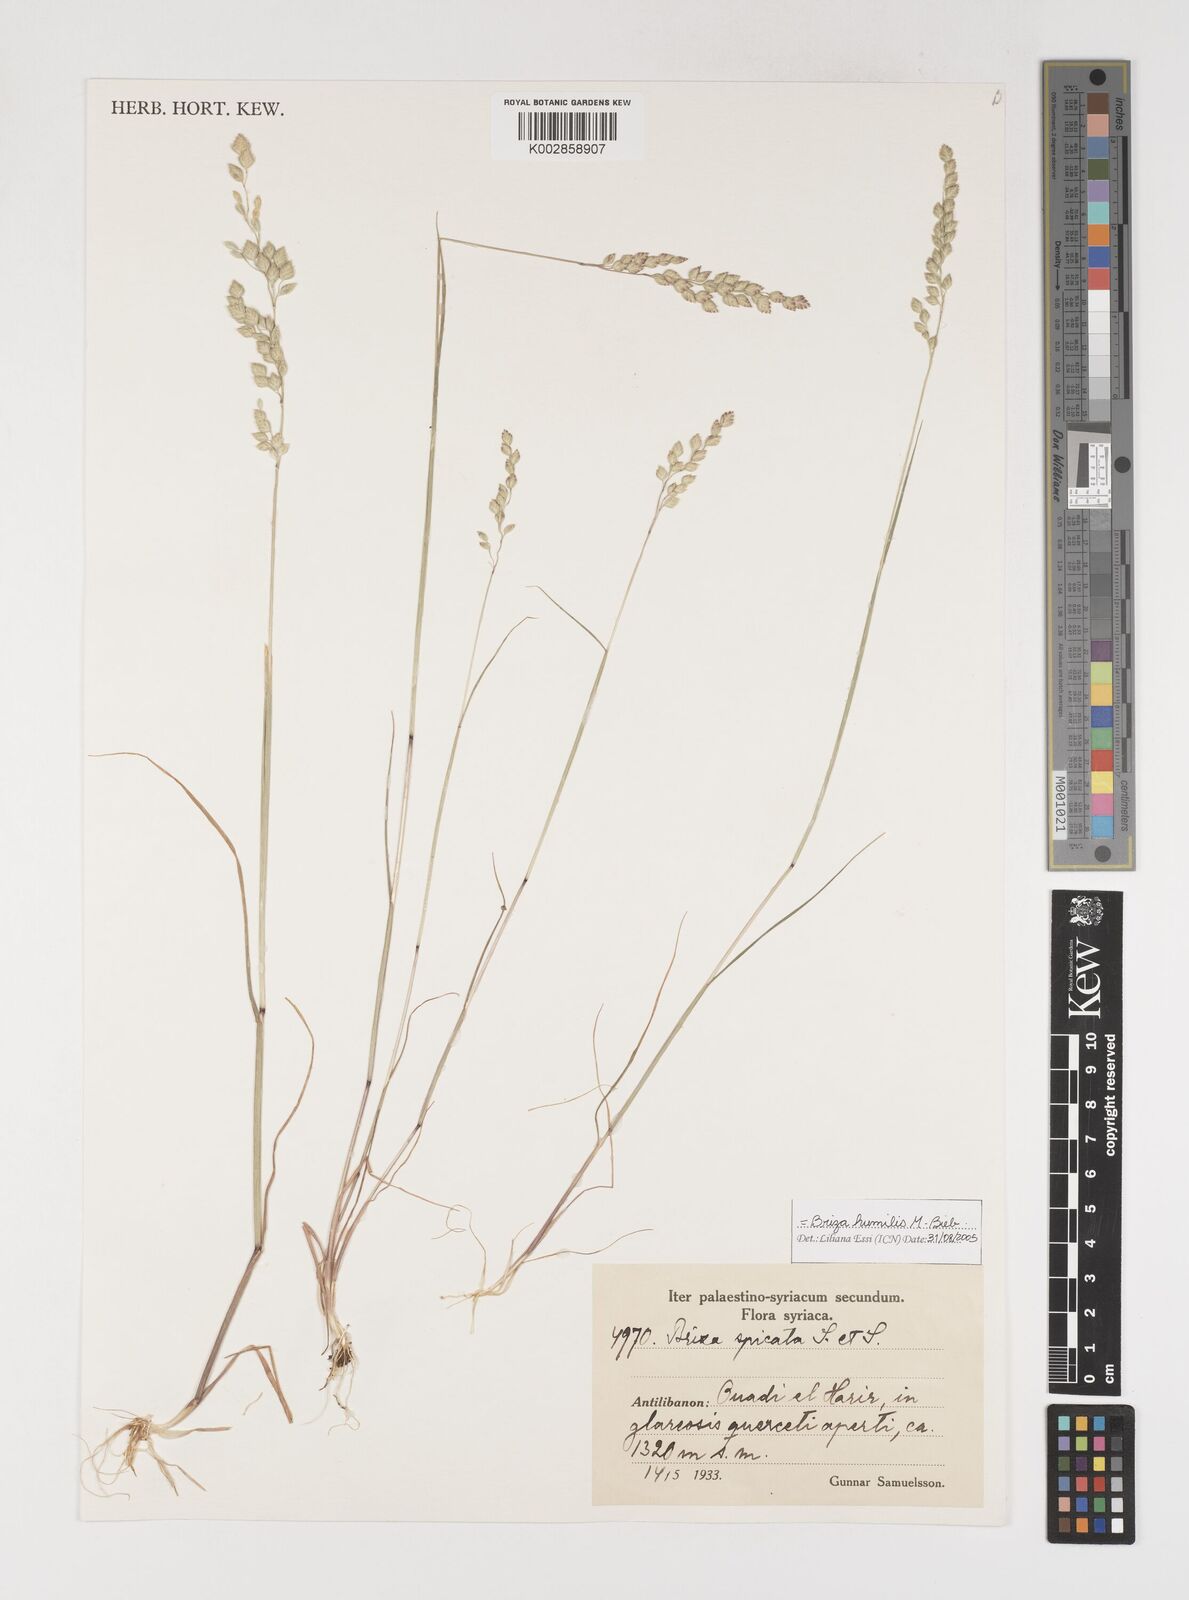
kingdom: Plantae
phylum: Tracheophyta
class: Liliopsida
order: Poales
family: Poaceae
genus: Briza
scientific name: Briza humilis
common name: Spiked quaking grass
